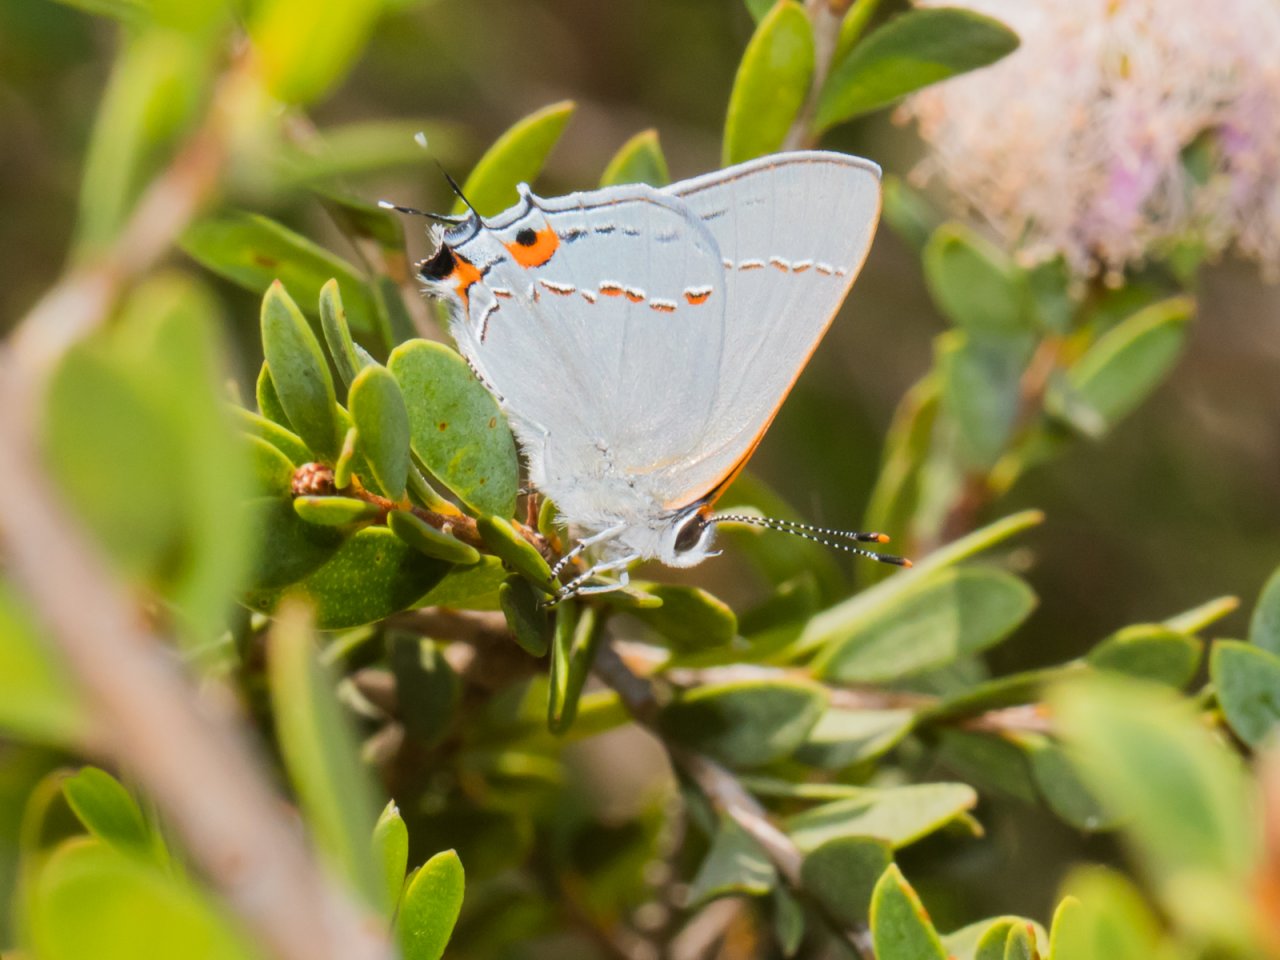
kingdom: Animalia
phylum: Arthropoda
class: Insecta
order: Lepidoptera
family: Lycaenidae
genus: Strymon
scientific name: Strymon melinus
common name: Gray Hairstreak
